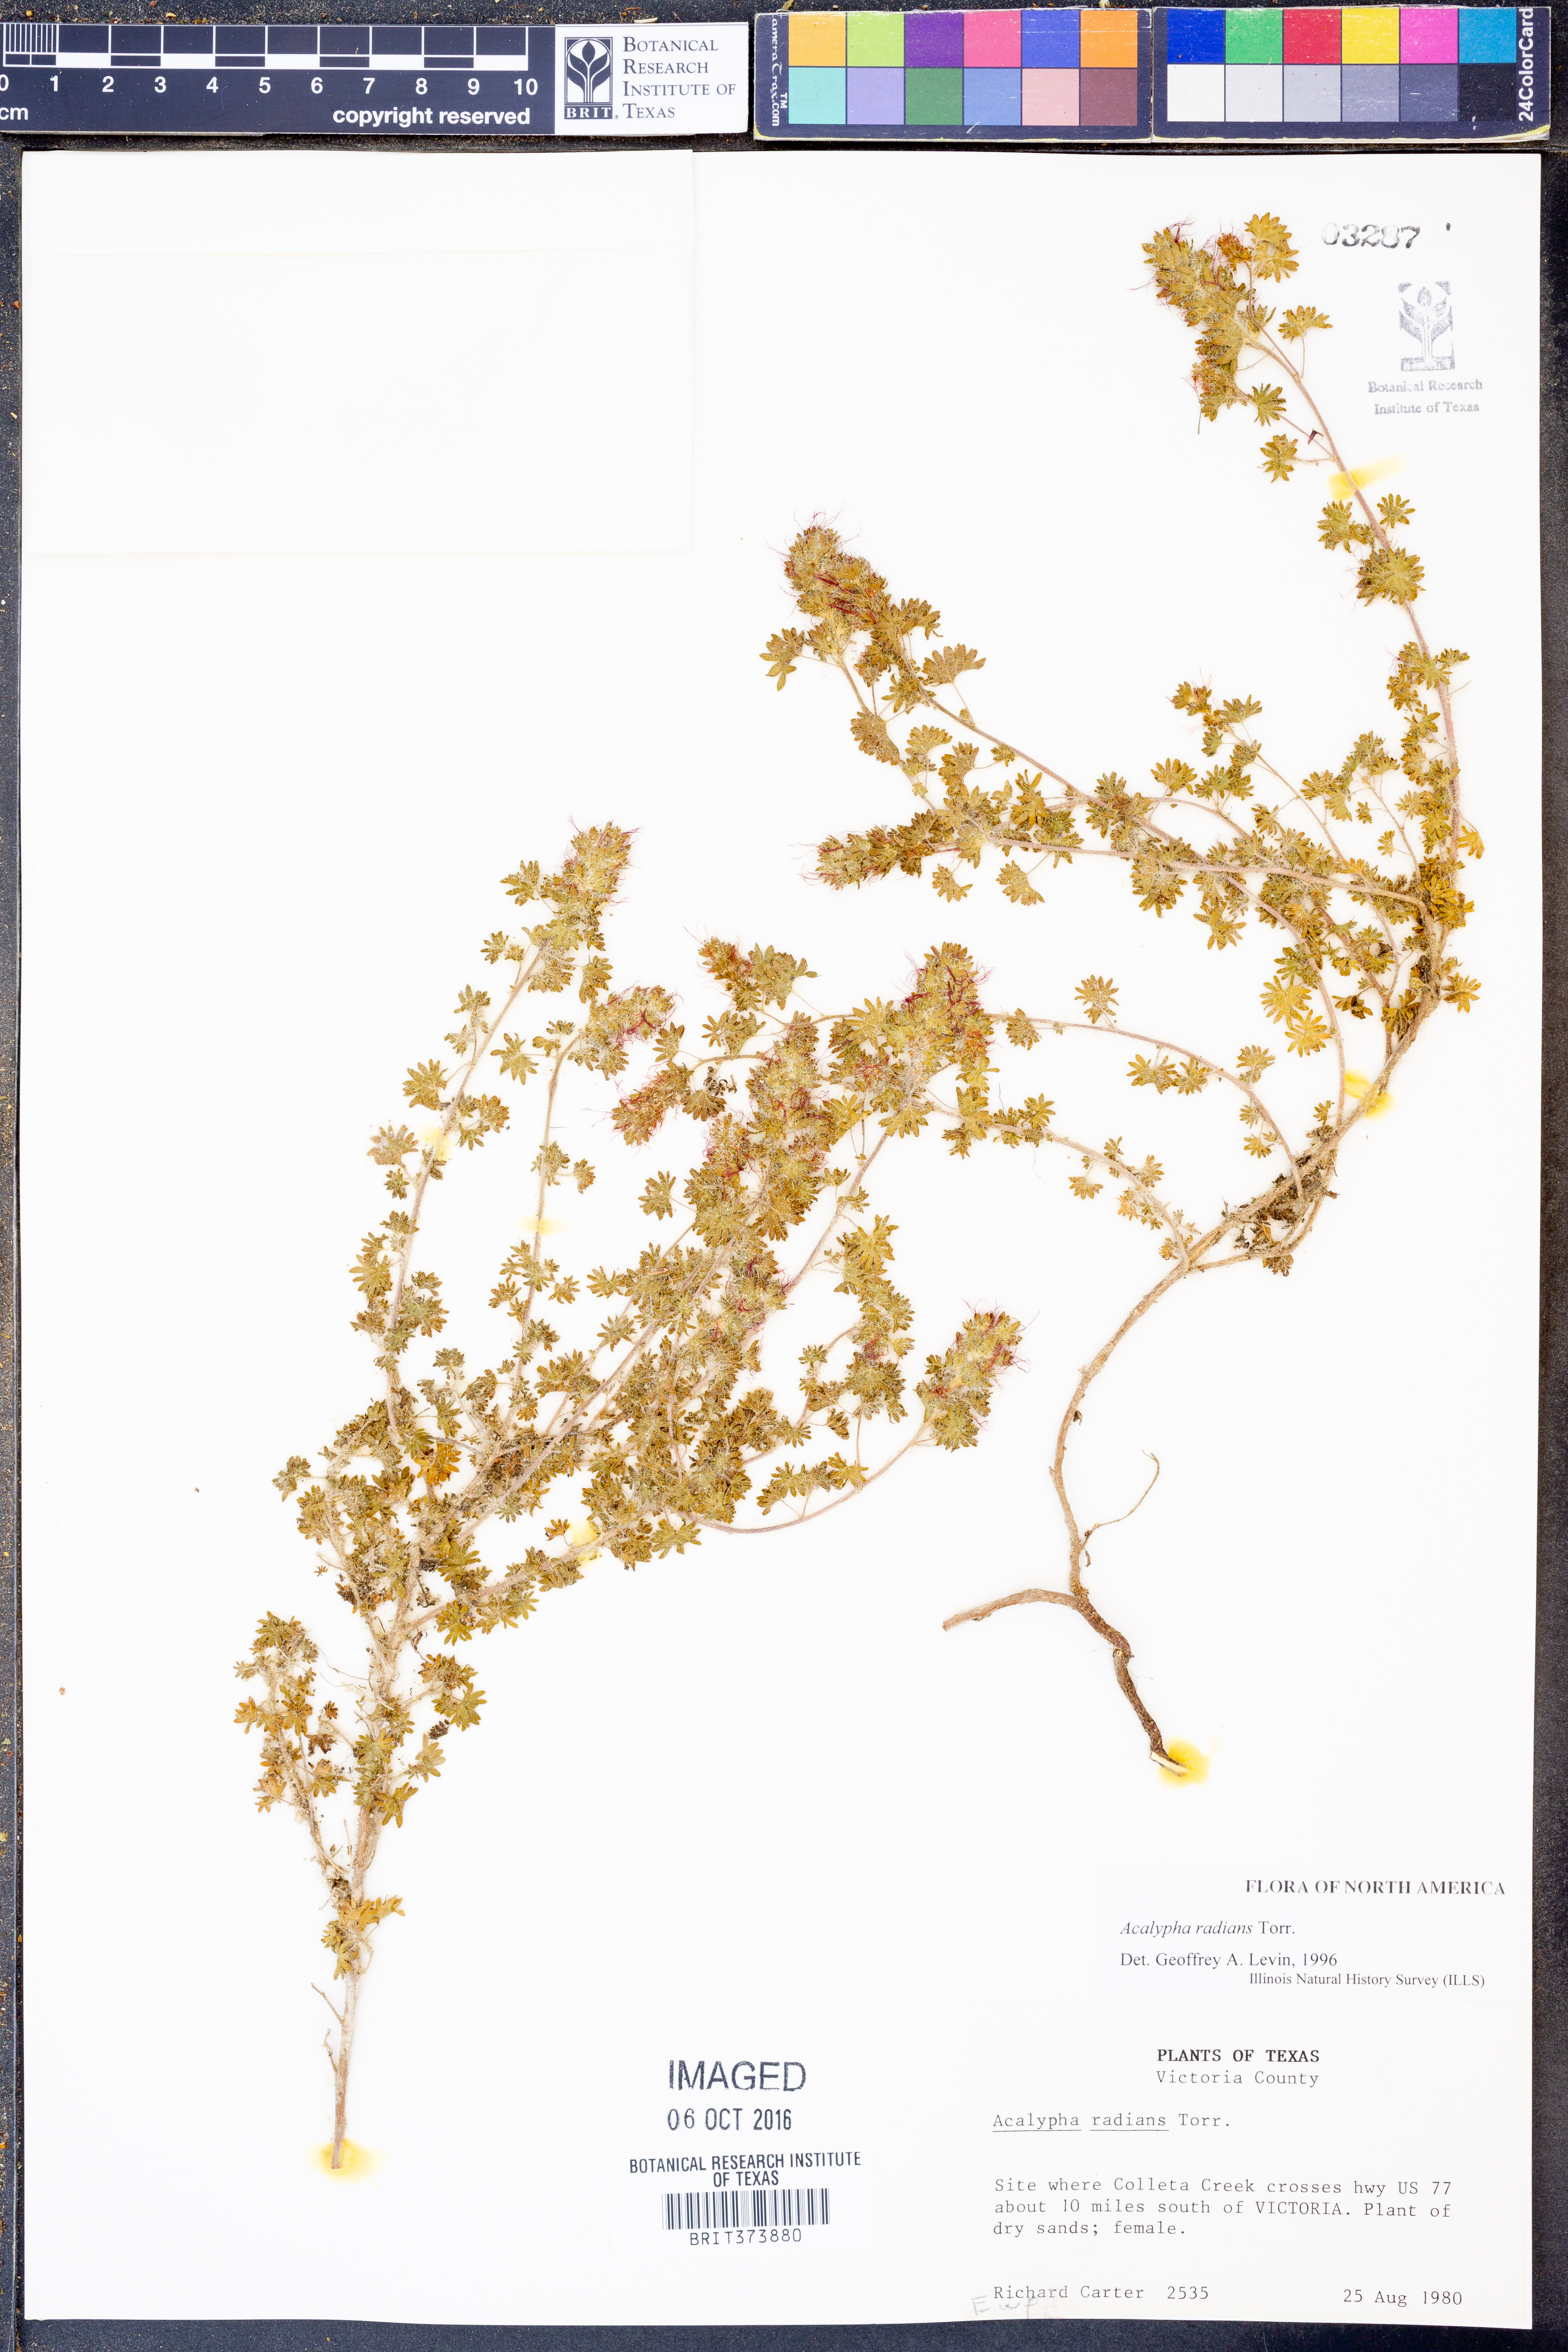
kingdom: Plantae
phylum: Tracheophyta
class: Magnoliopsida
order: Malpighiales
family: Euphorbiaceae
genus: Acalypha
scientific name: Acalypha radians
